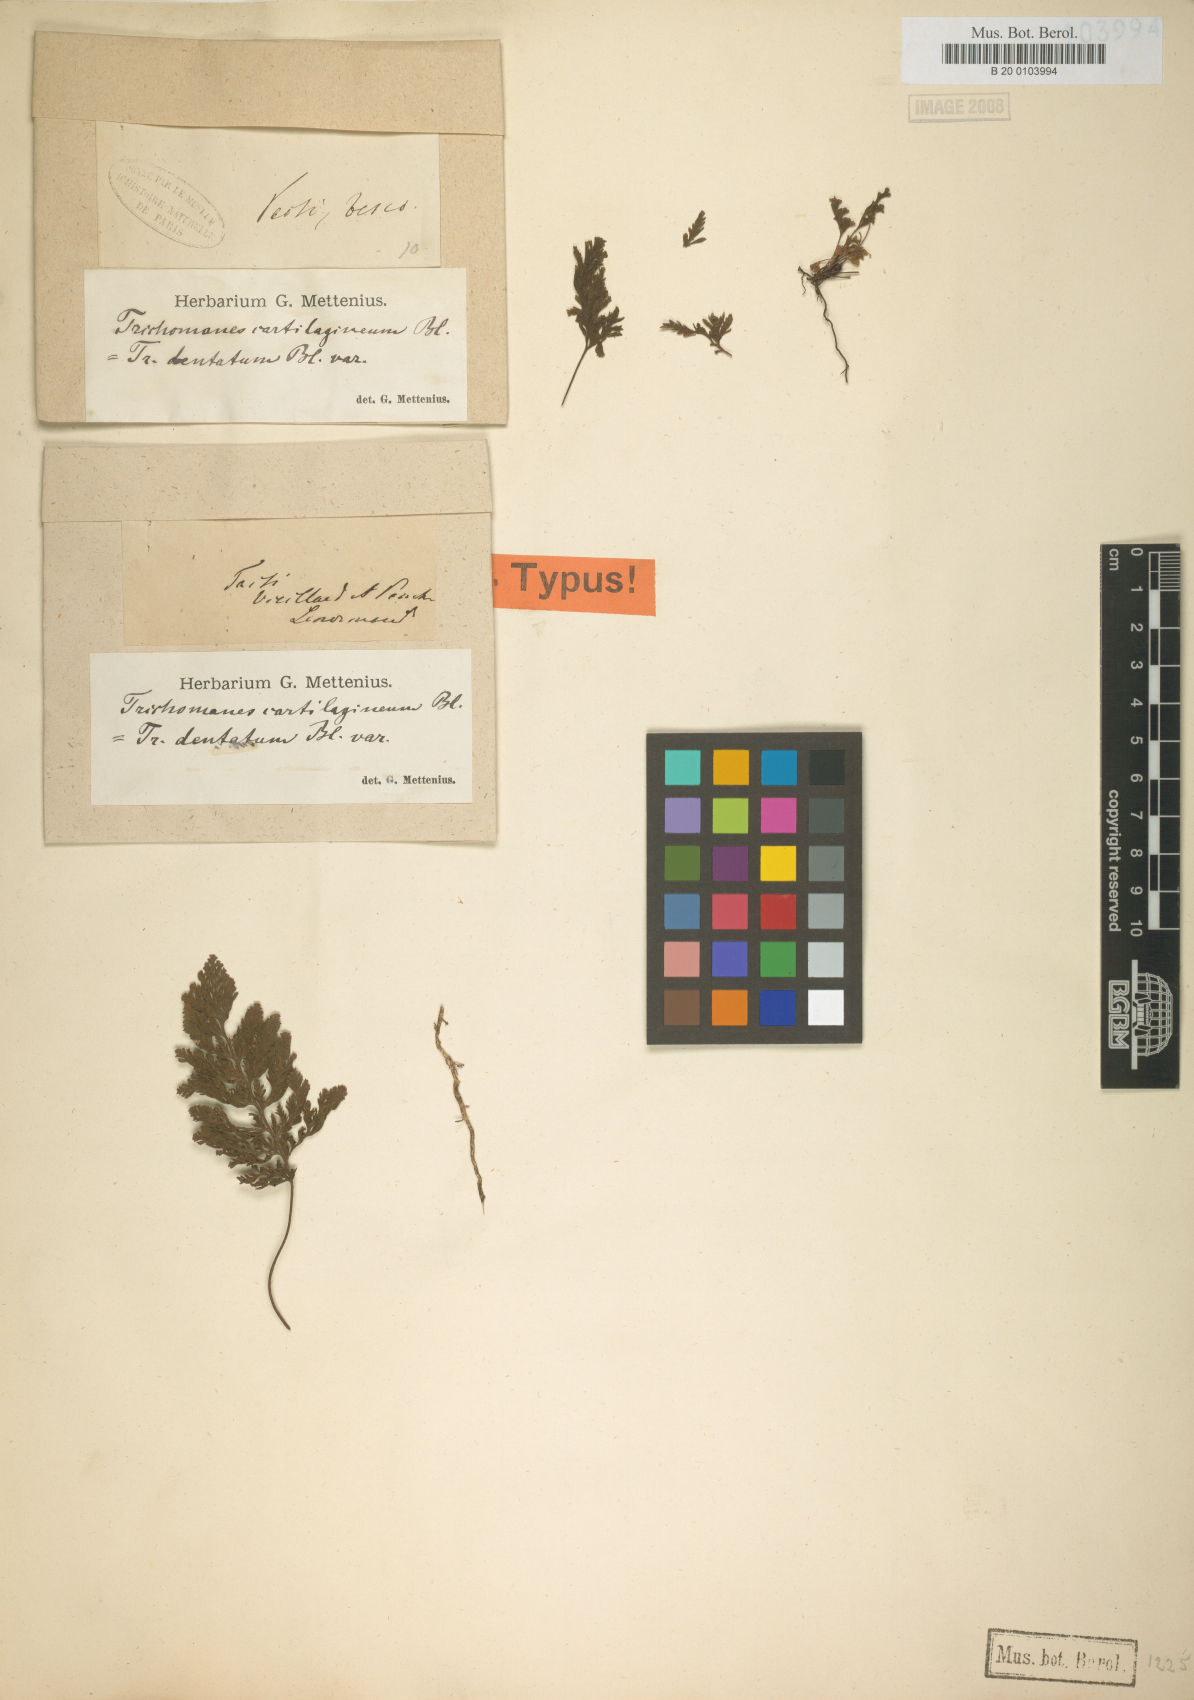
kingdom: Plantae
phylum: Tracheophyta
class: Polypodiopsida
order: Hymenophyllales
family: Hymenophyllaceae
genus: Abrodictyum
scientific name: Abrodictyum dentatum
